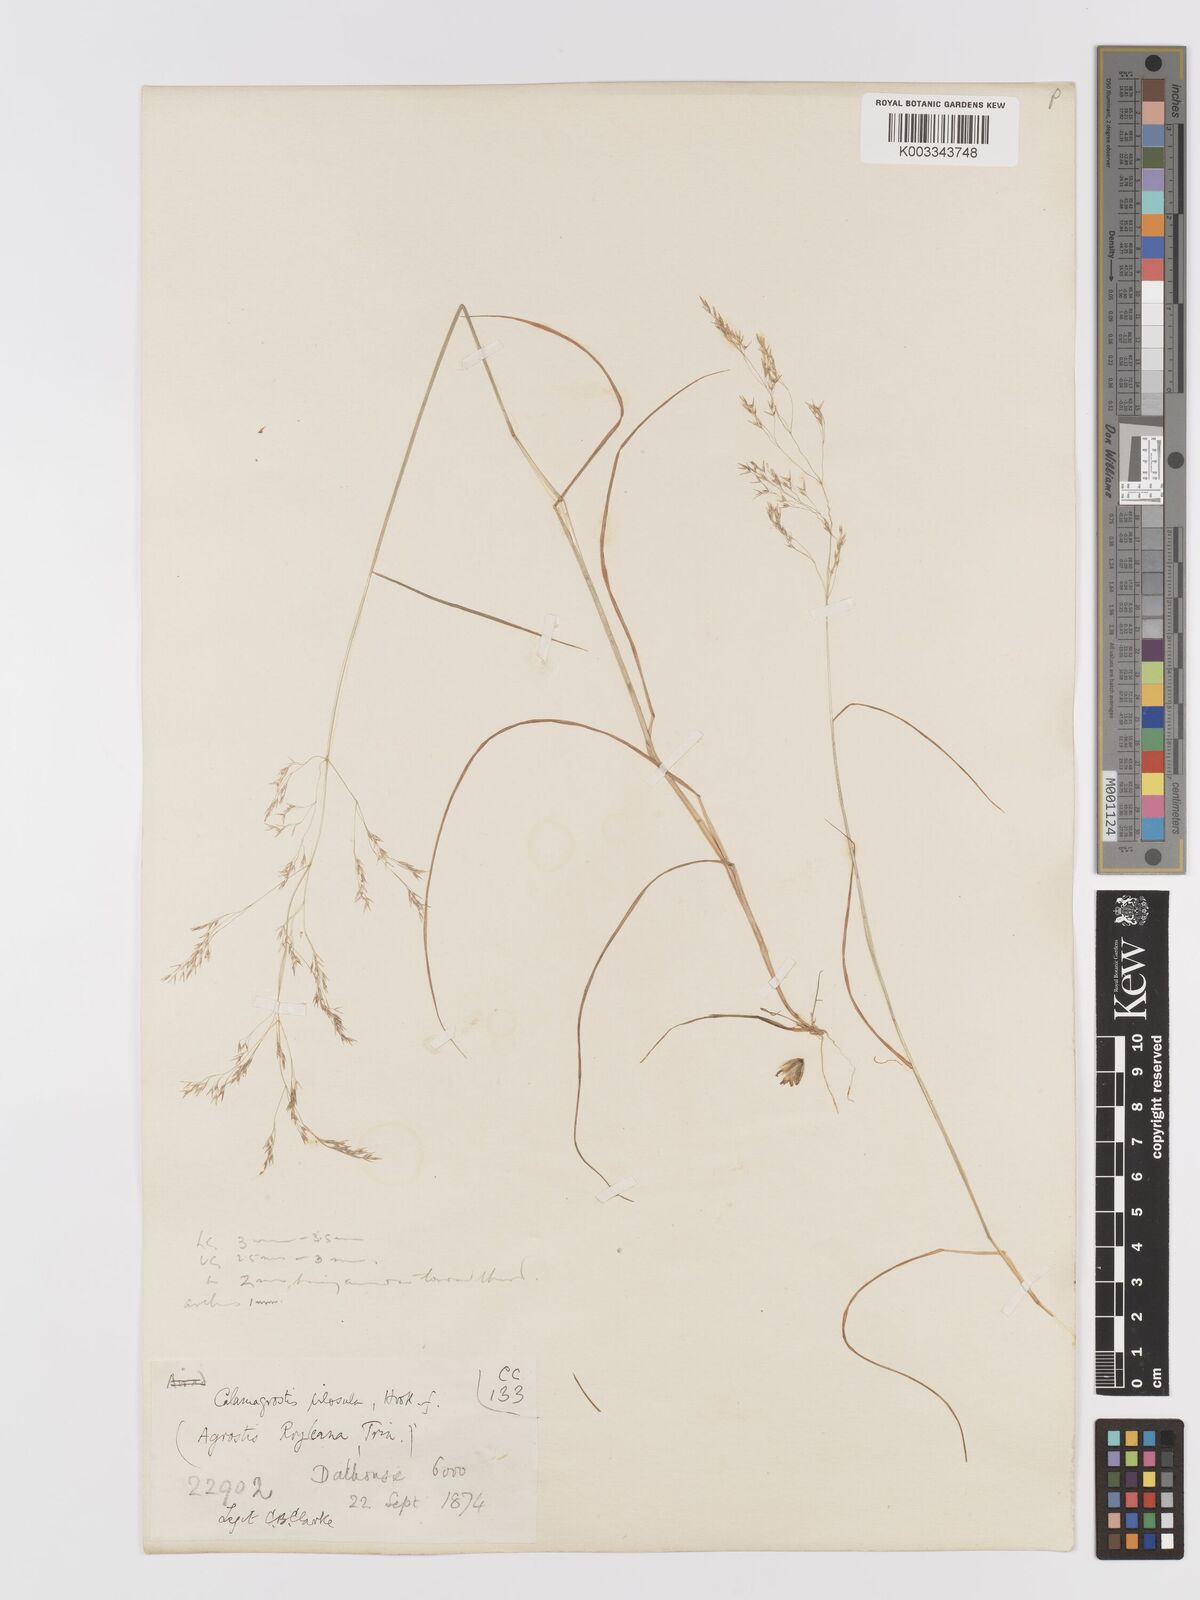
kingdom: Plantae
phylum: Tracheophyta
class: Liliopsida
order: Poales
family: Poaceae
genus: Agrostis
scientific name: Agrostis pilosula
